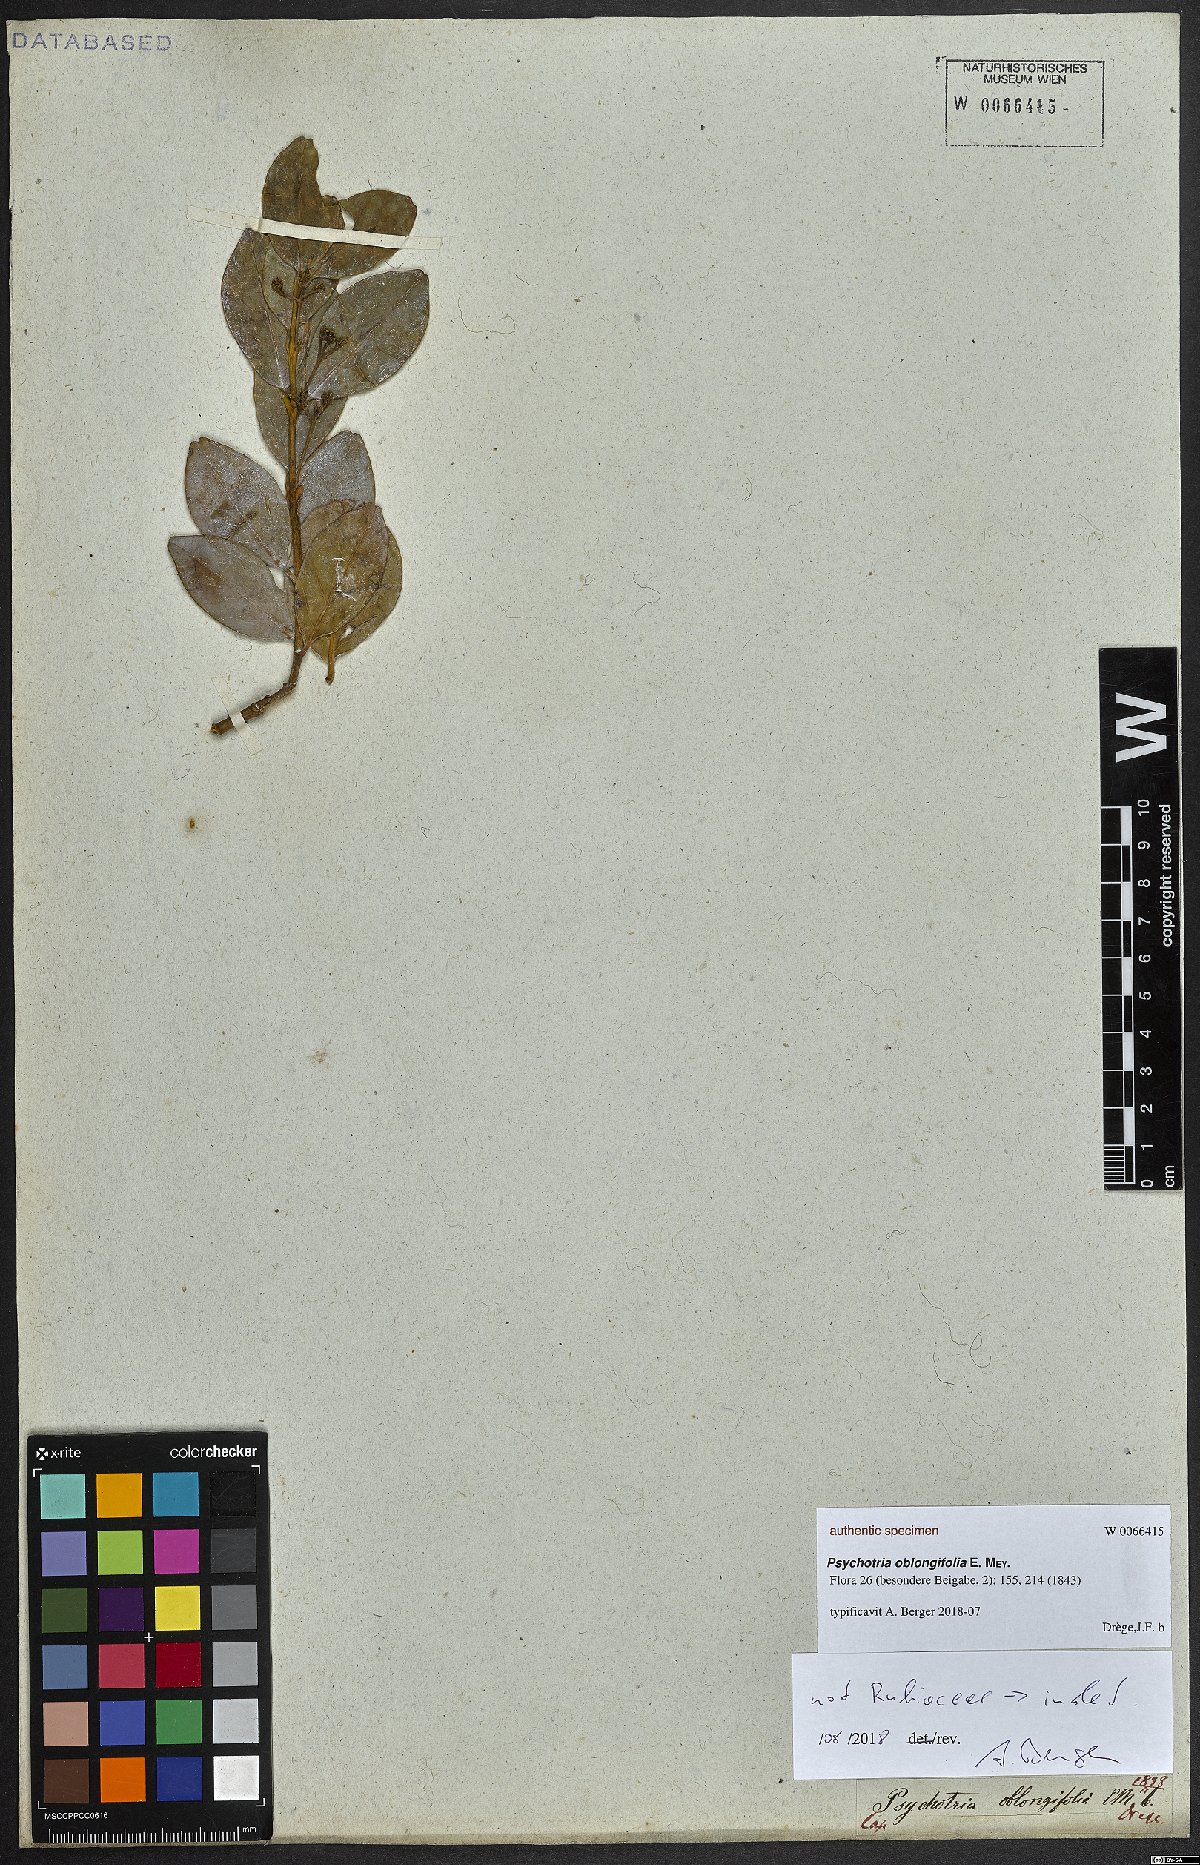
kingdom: Plantae
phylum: Tracheophyta
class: Magnoliopsida
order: Gentianales
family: Rubiaceae
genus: Kraussia
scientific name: Kraussia floribunda
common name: Rhino-coffee
